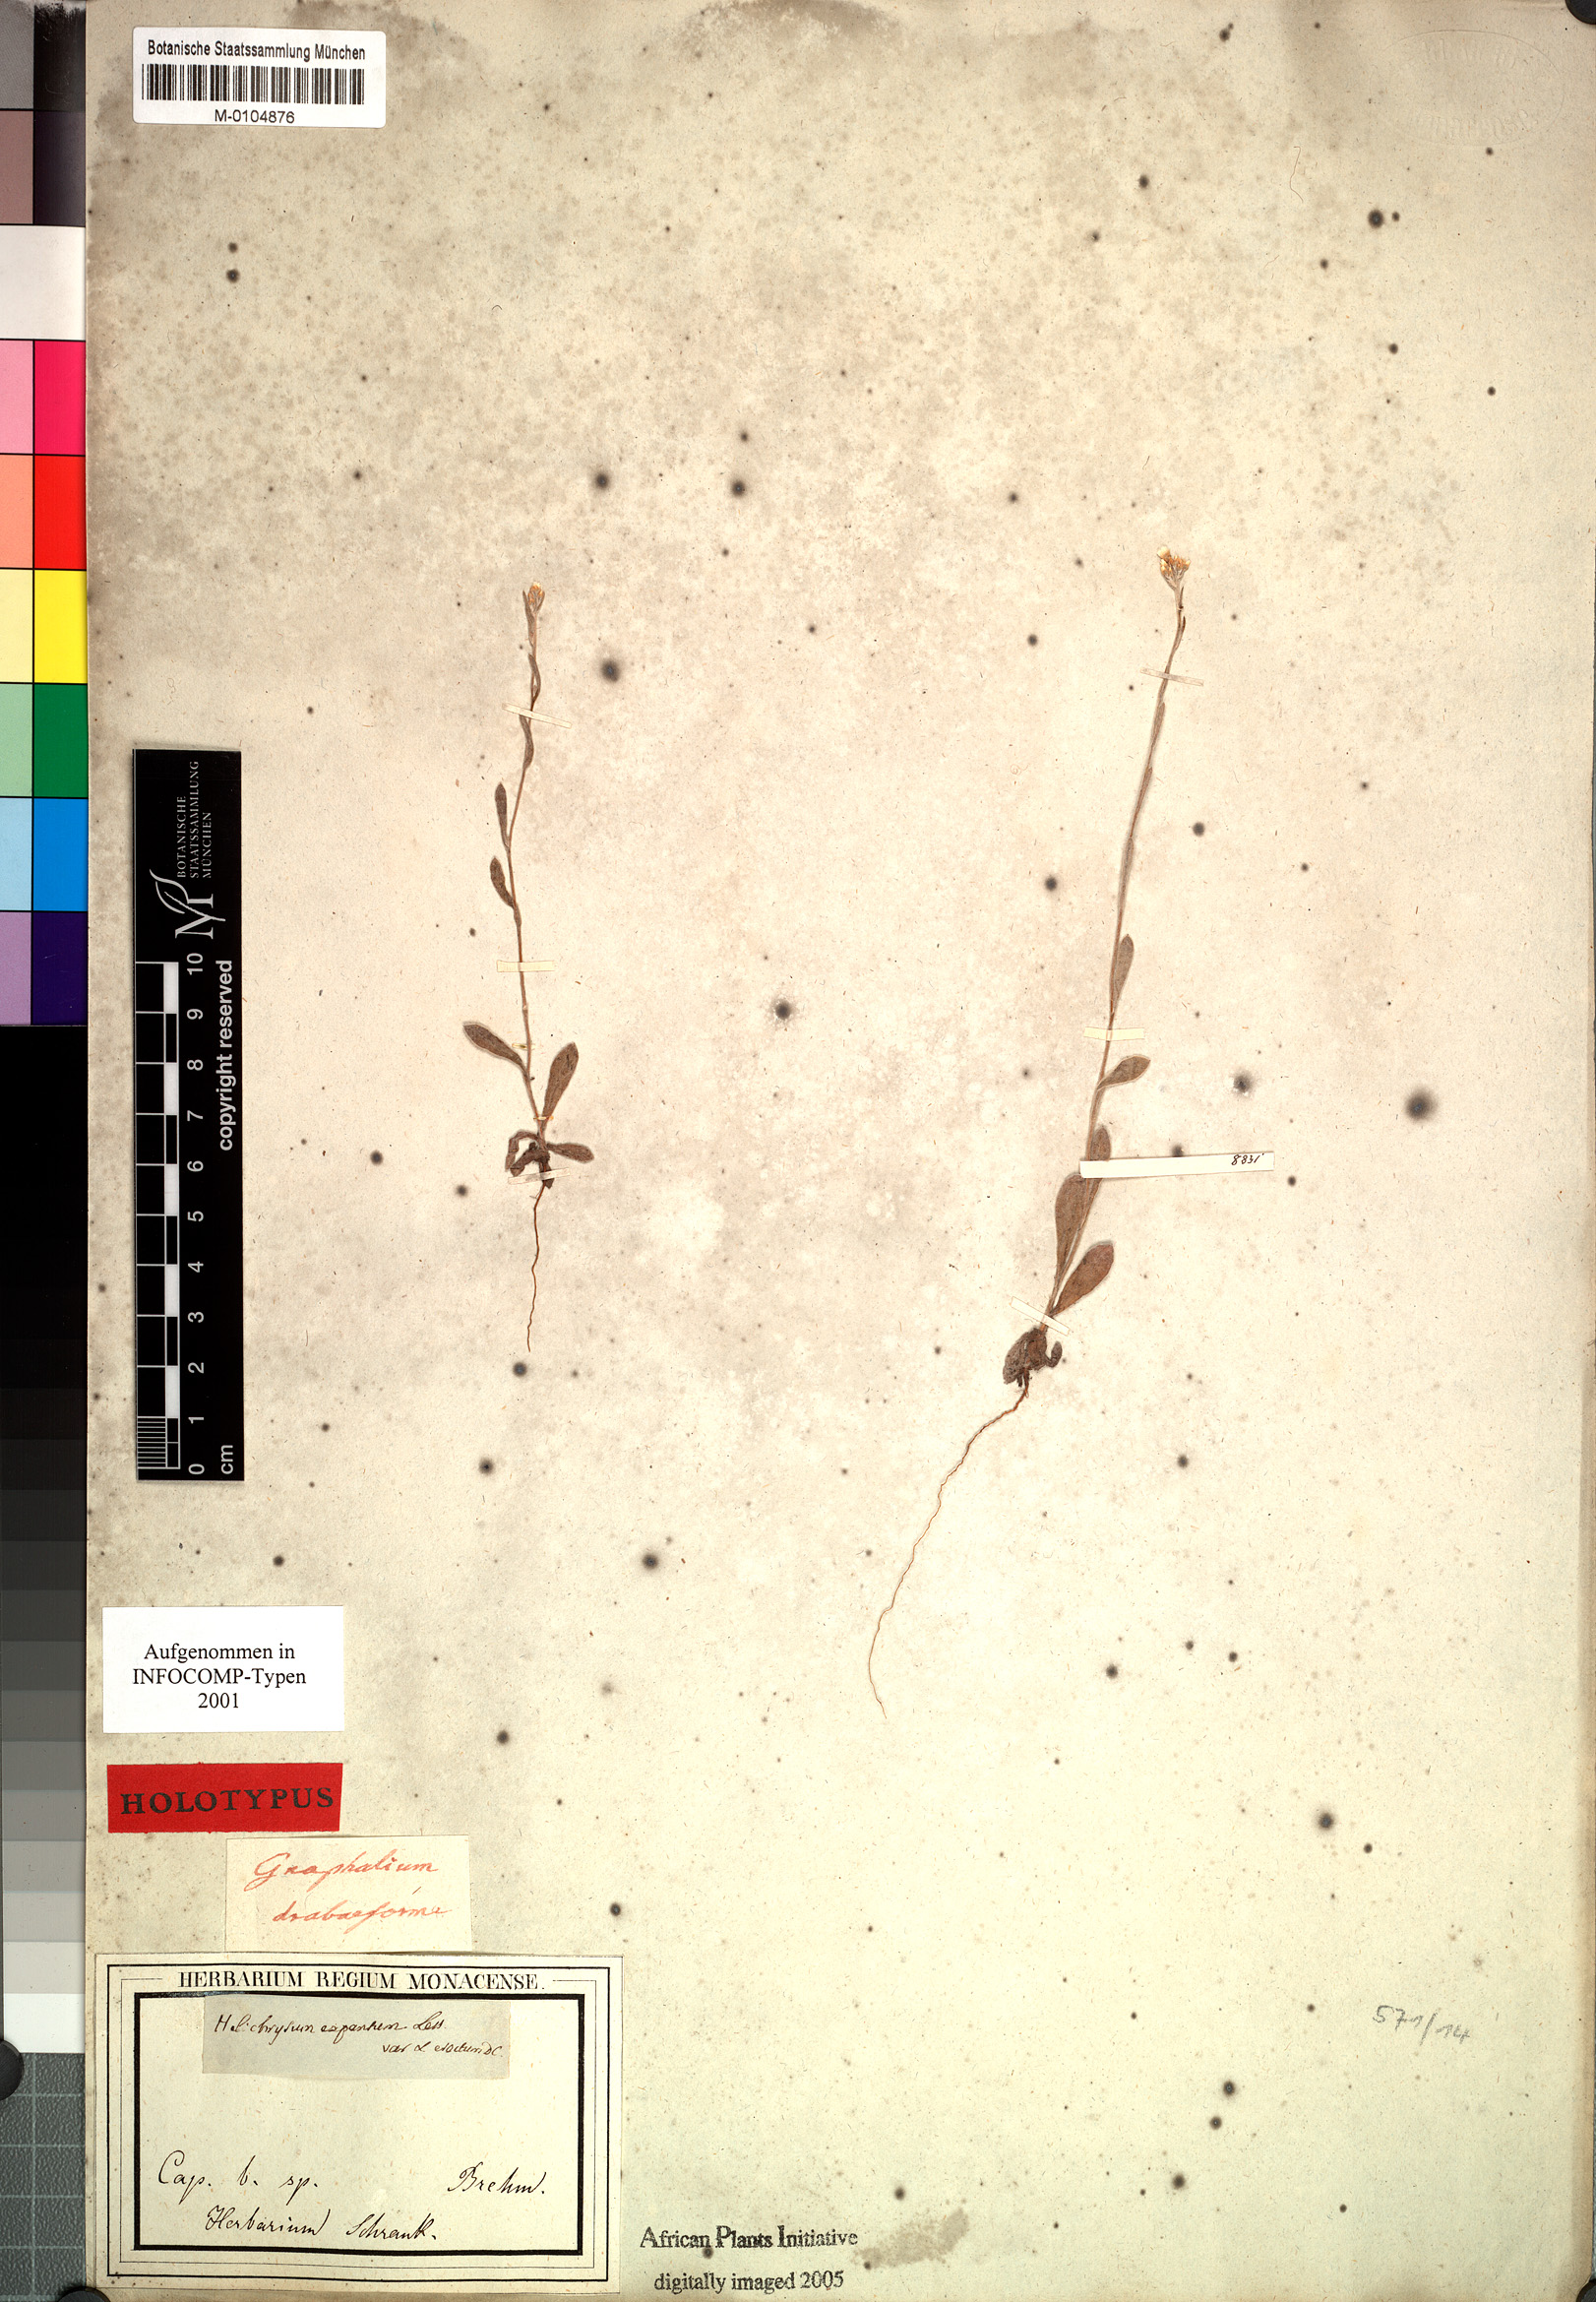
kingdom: Plantae
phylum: Tracheophyta
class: Magnoliopsida
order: Asterales
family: Asteraceae
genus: Helichrysum
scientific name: Helichrysum indicum
